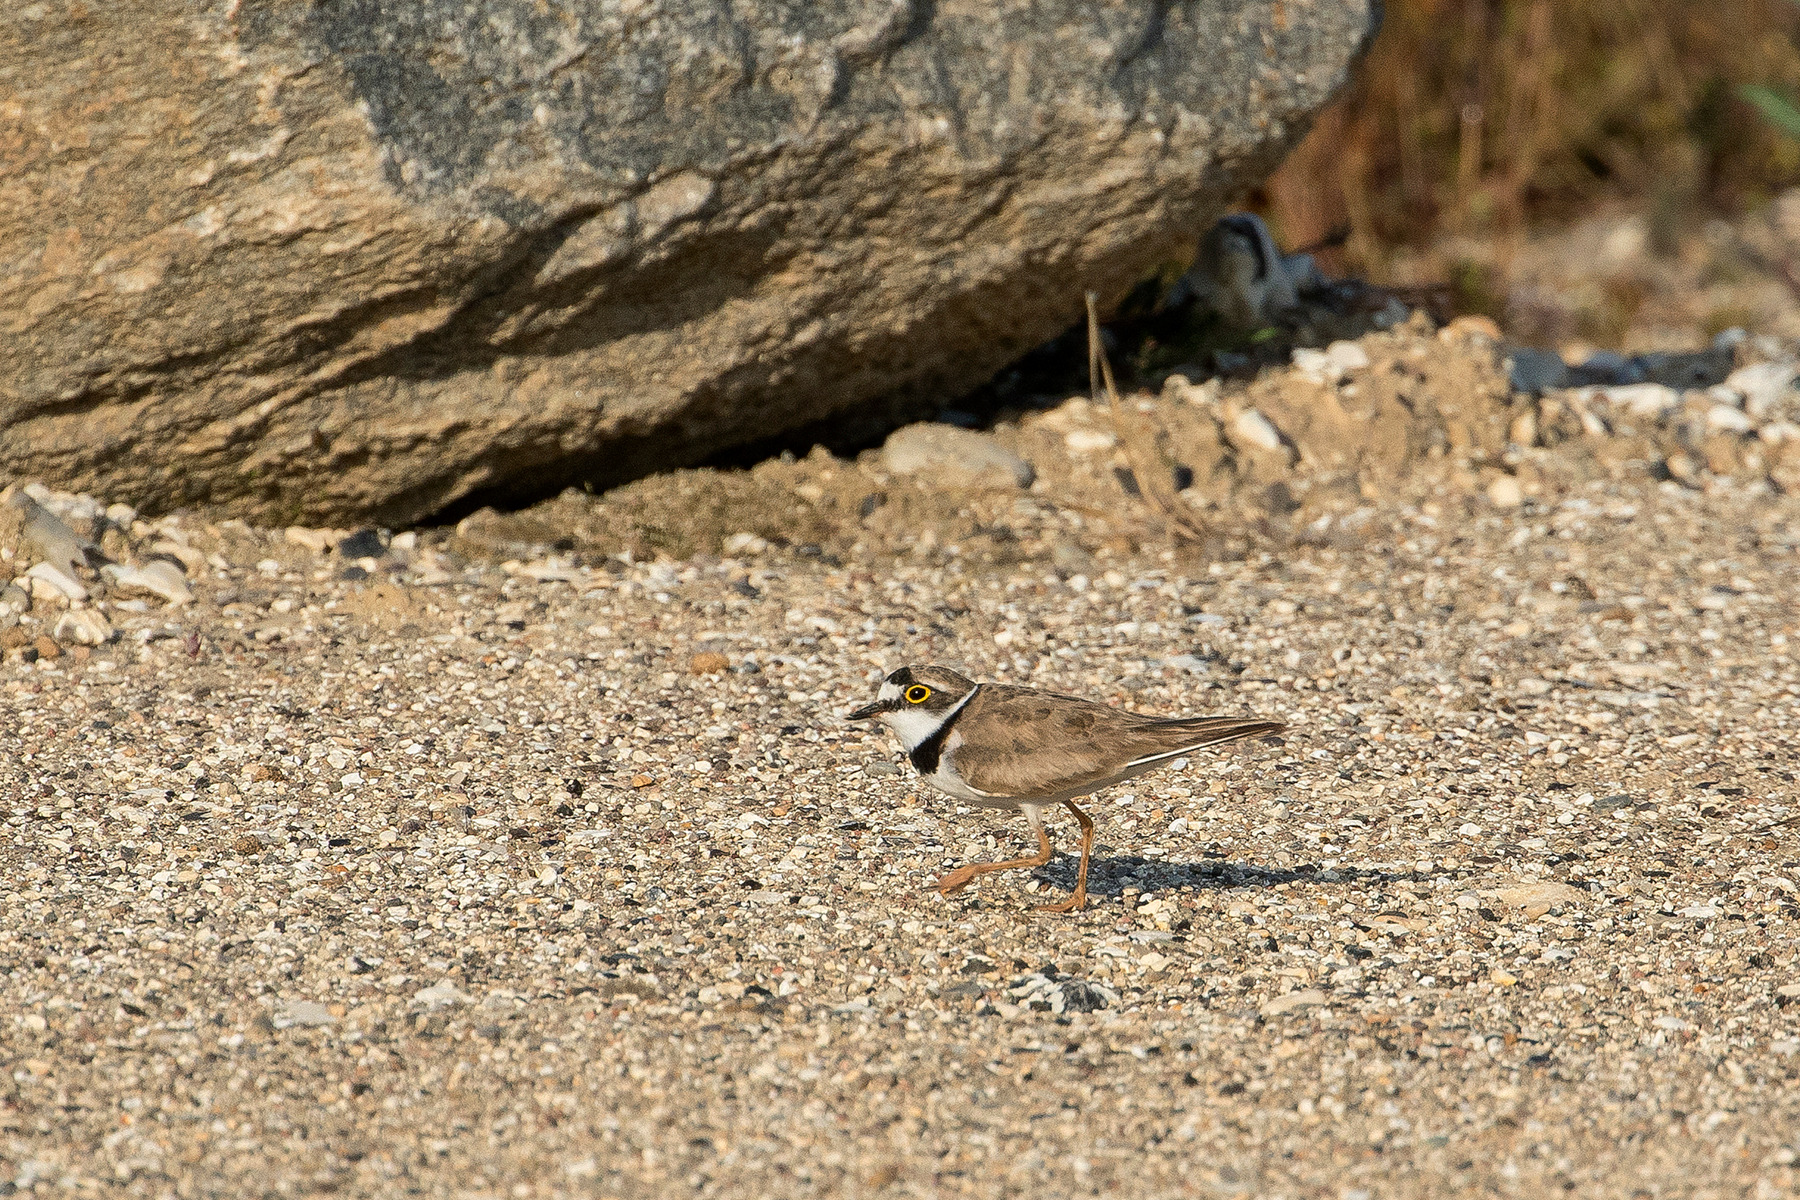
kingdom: Animalia
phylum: Chordata
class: Aves
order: Charadriiformes
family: Charadriidae
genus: Charadrius
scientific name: Charadrius dubius
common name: Lille præstekrave
